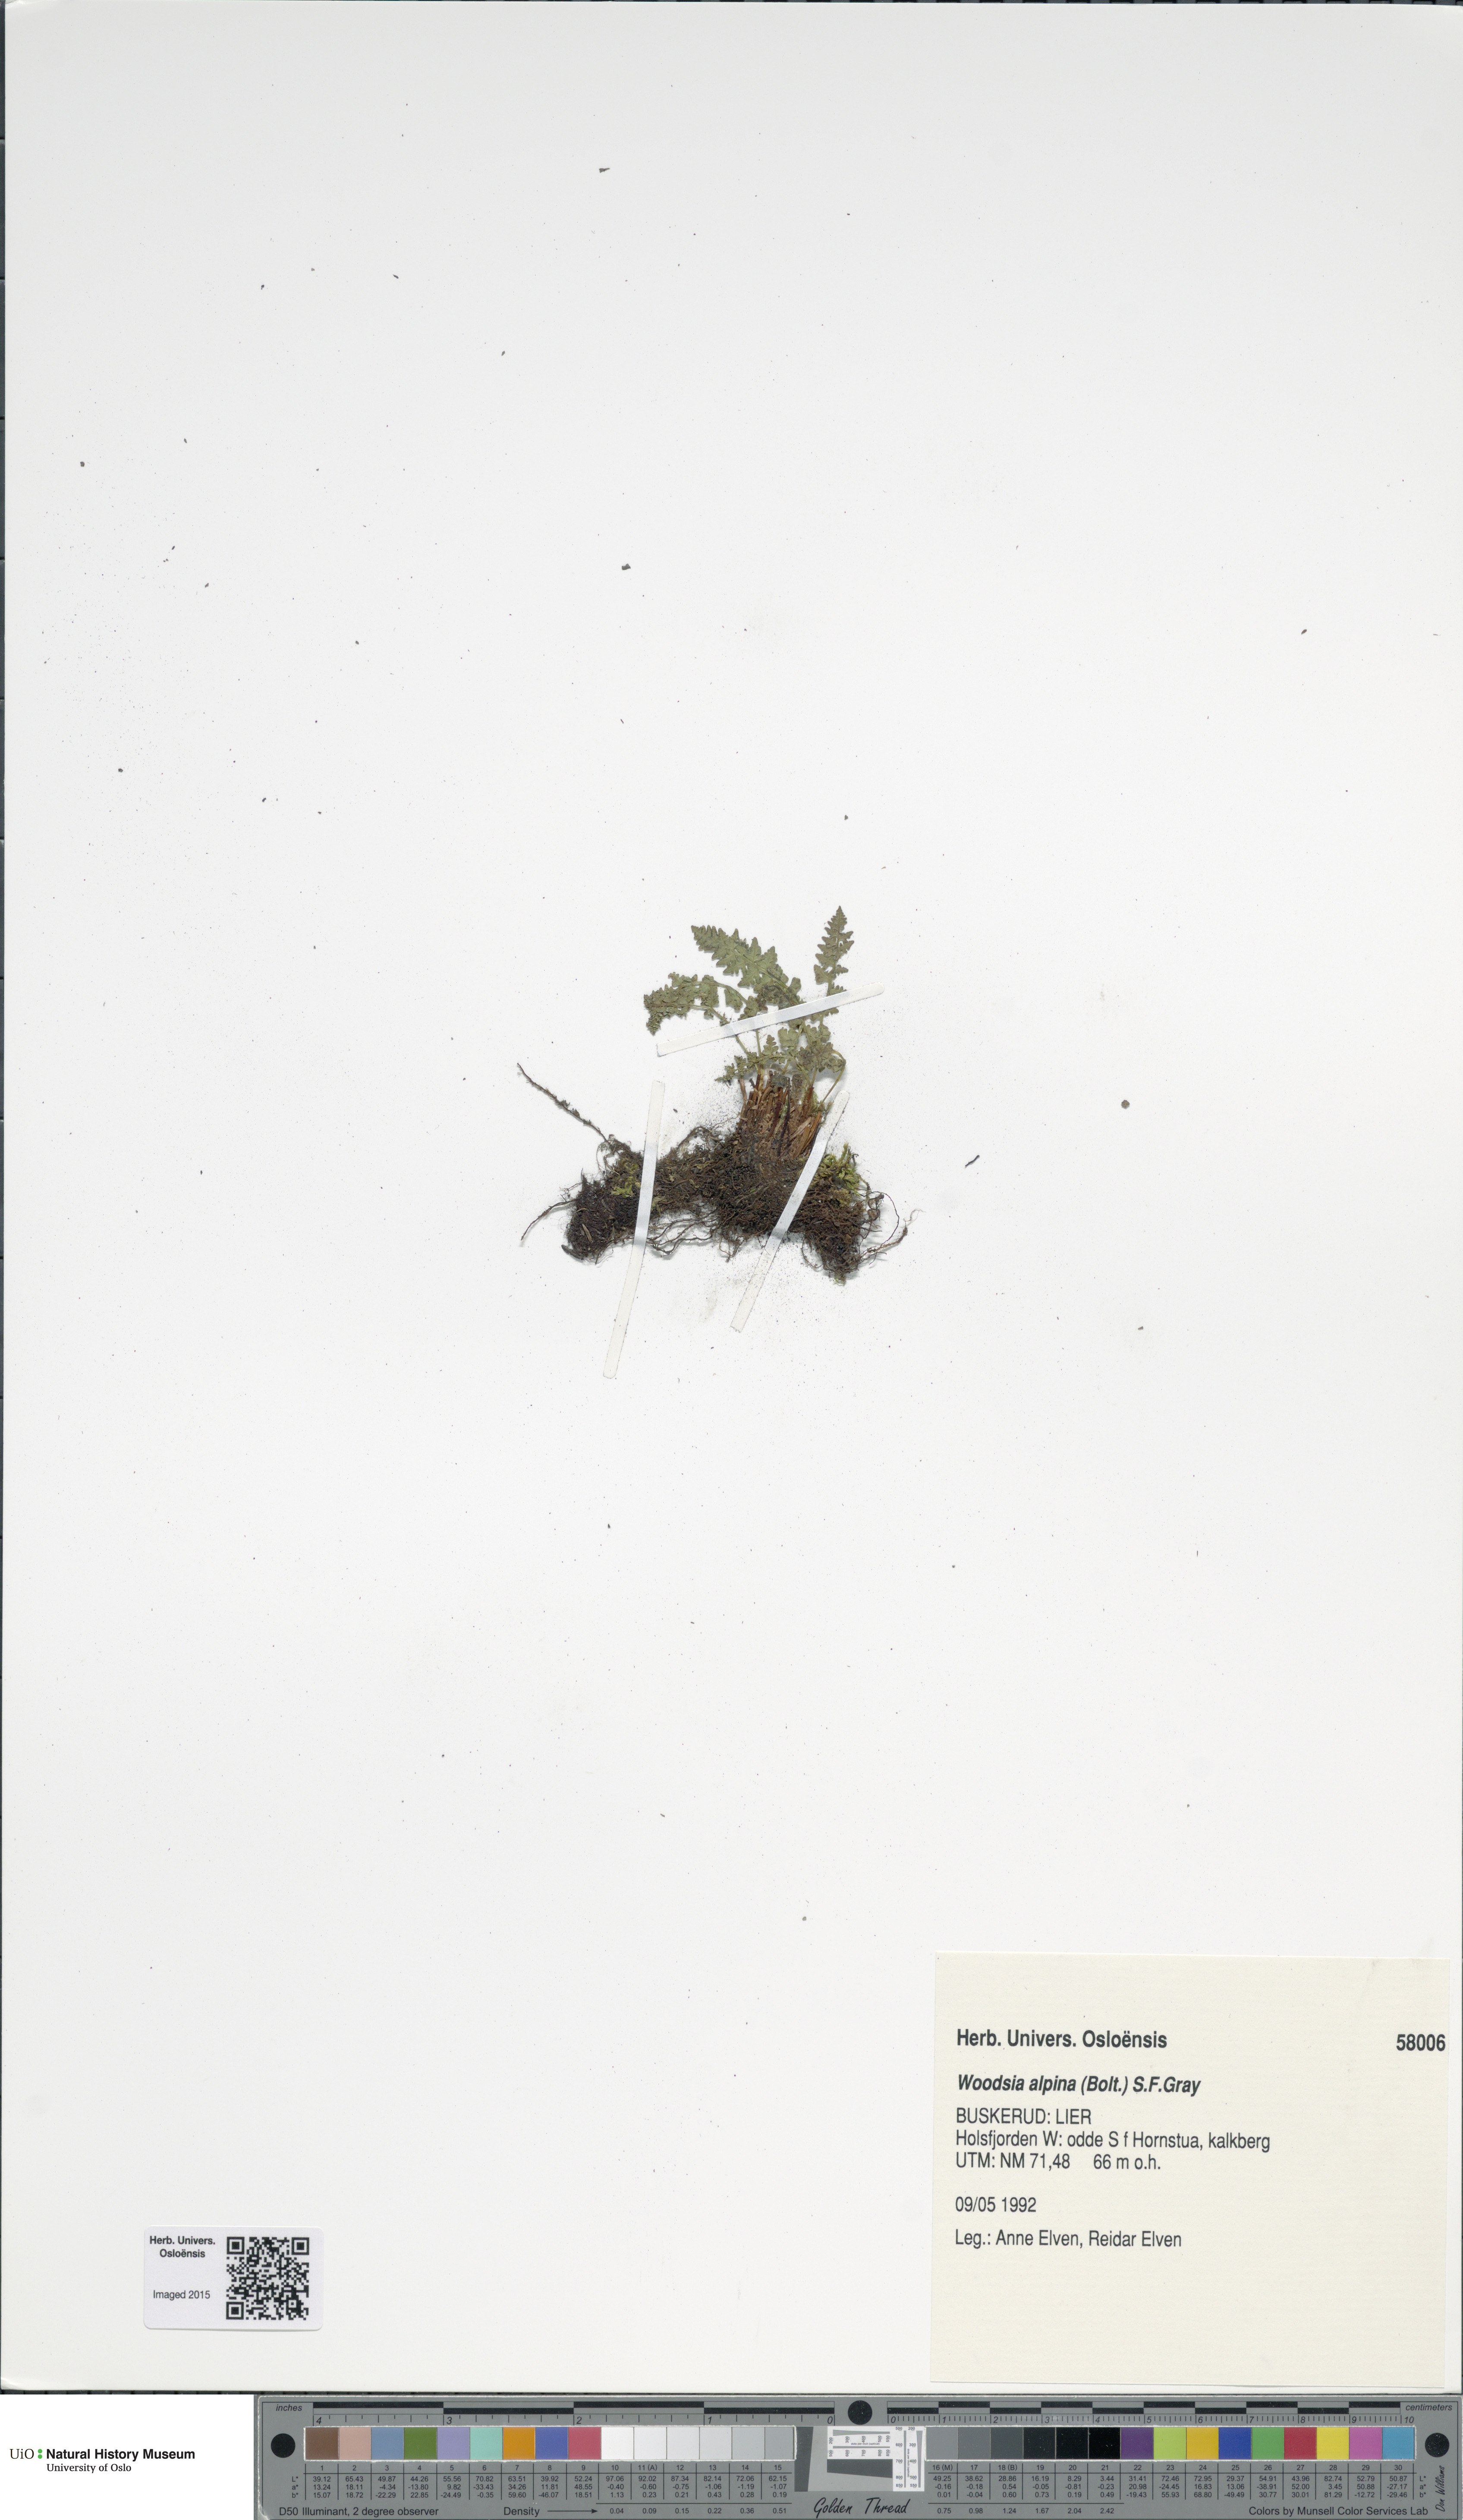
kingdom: Plantae
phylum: Tracheophyta
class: Polypodiopsida
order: Polypodiales
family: Woodsiaceae
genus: Woodsia
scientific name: Woodsia alpina
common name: Alpine woodsia
